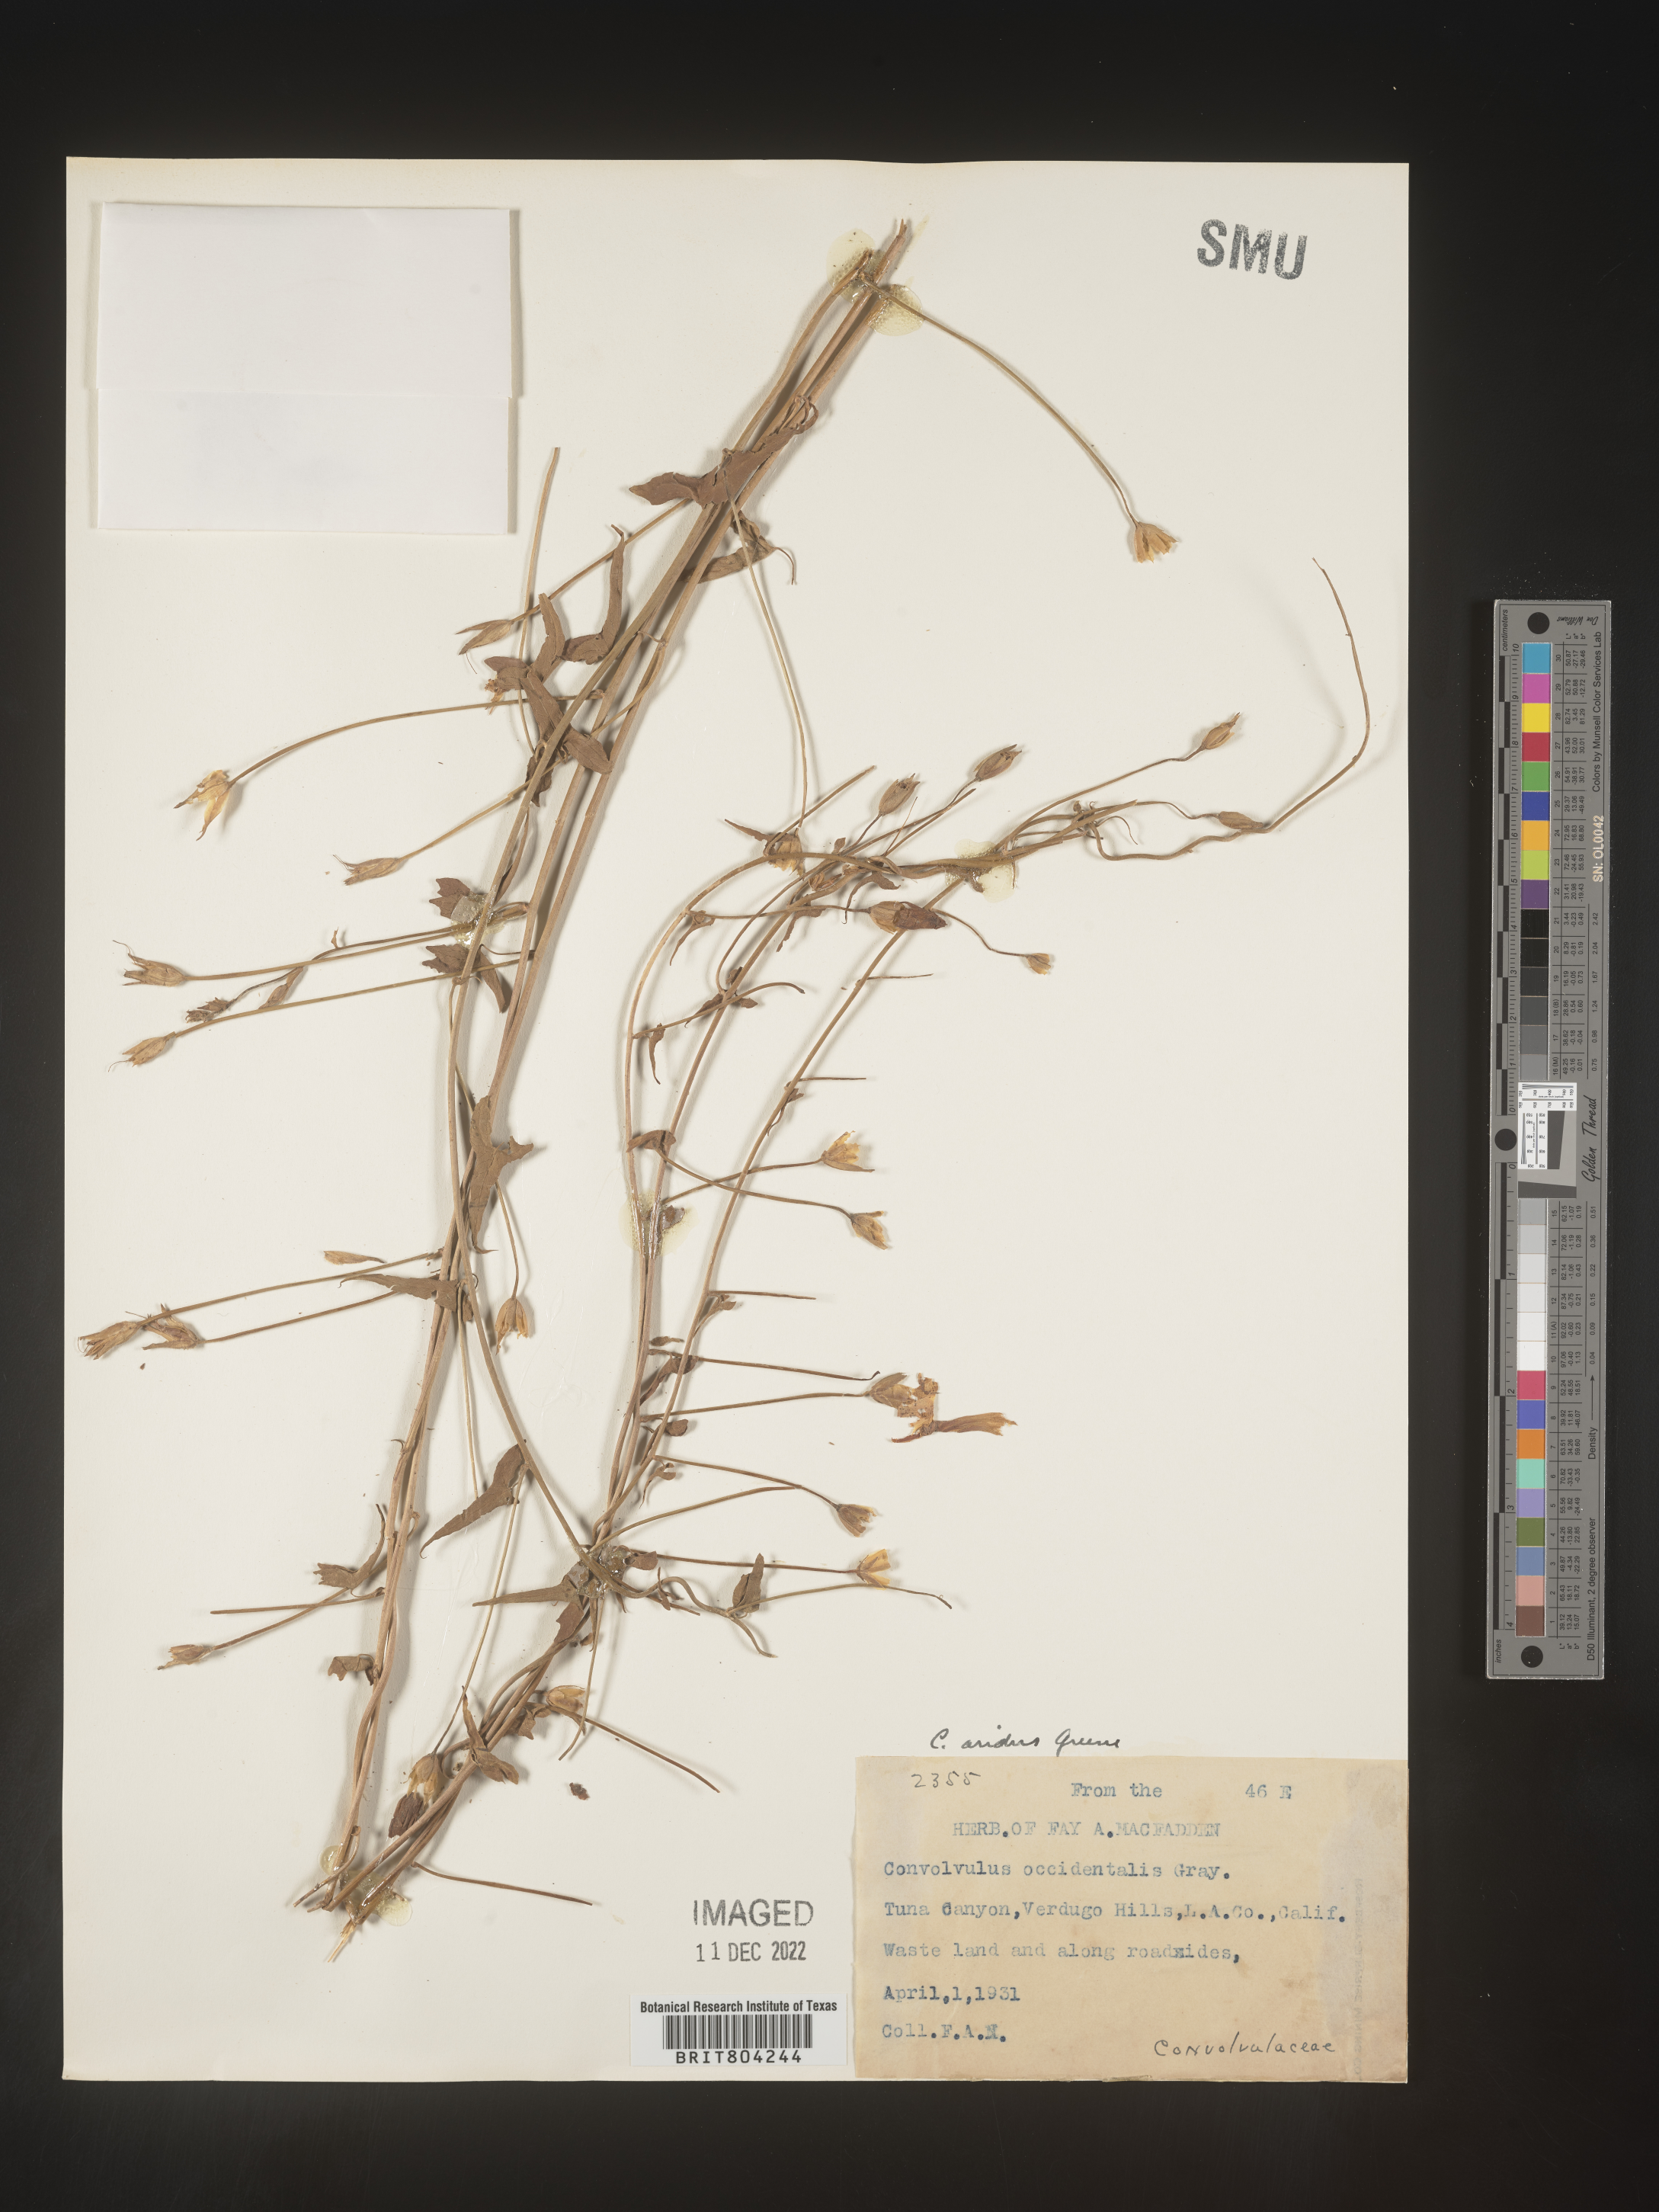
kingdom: Plantae
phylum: Tracheophyta
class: Magnoliopsida
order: Solanales
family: Convolvulaceae
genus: Convolvulus
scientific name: Convolvulus
